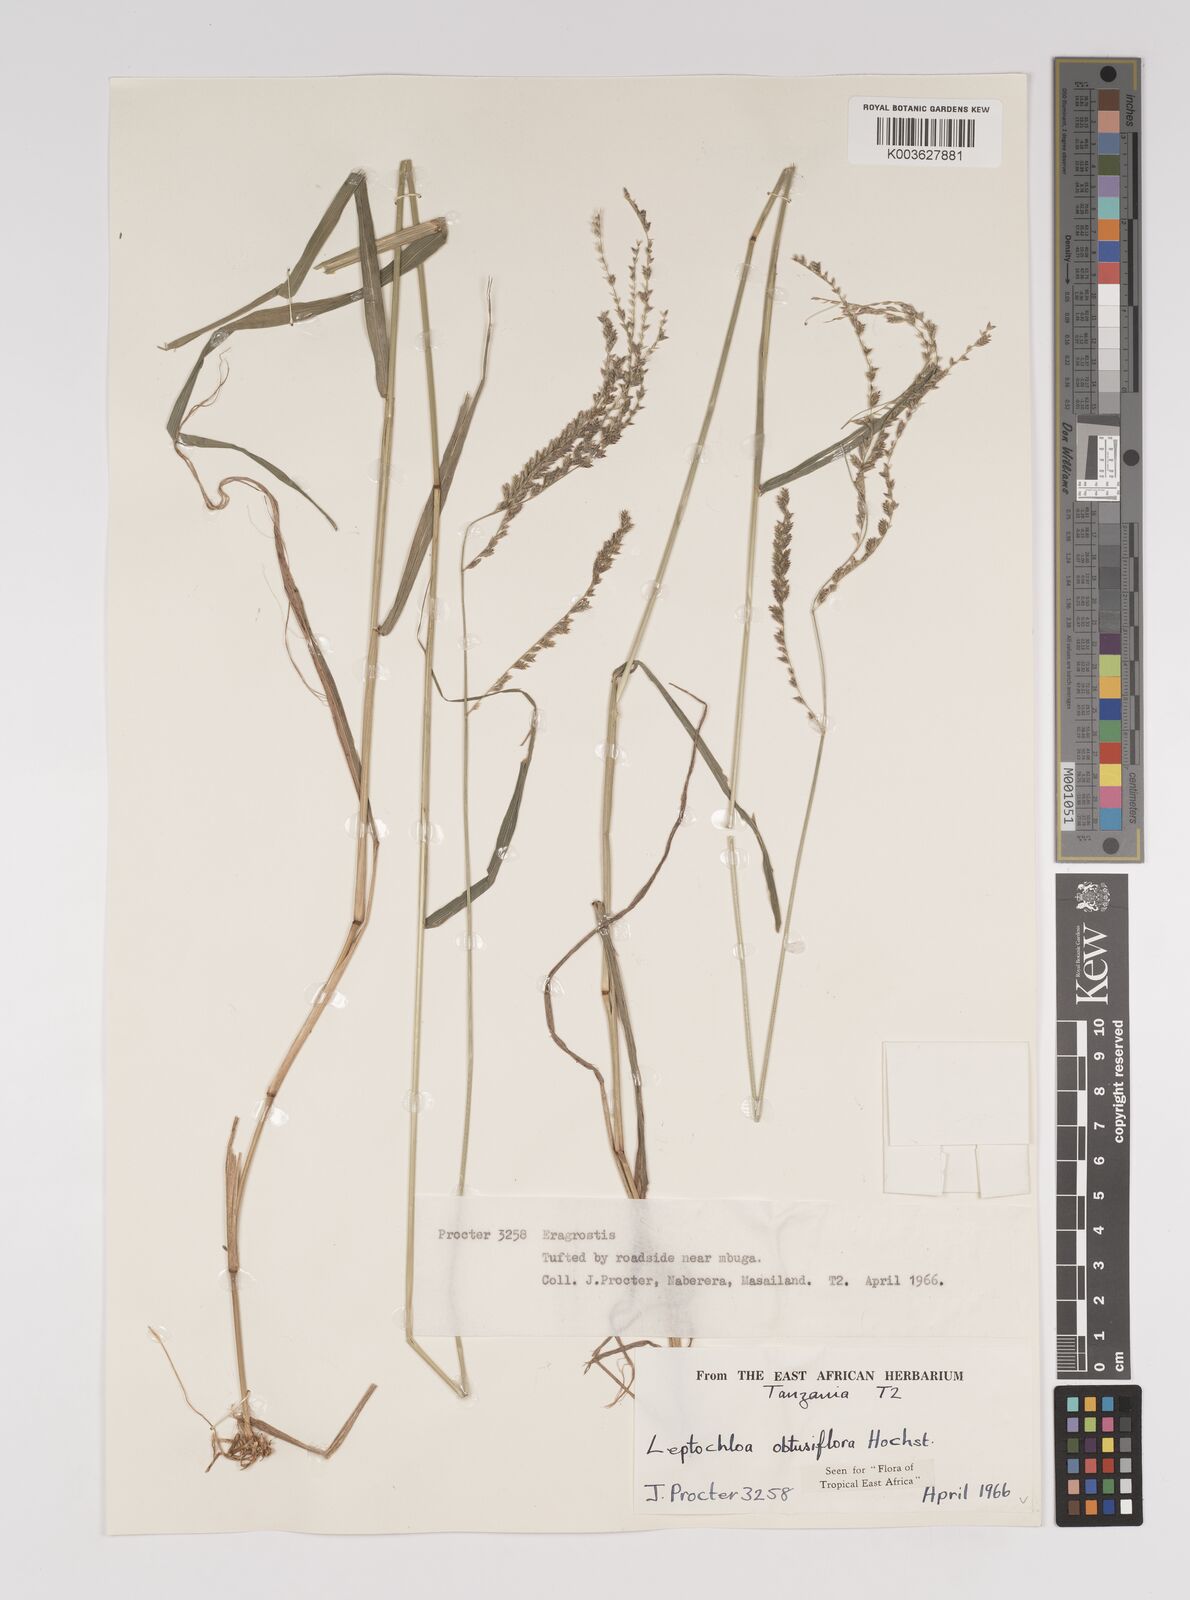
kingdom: Plantae
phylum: Tracheophyta
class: Liliopsida
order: Poales
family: Poaceae
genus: Disakisperma
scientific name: Disakisperma obtusiflorum
